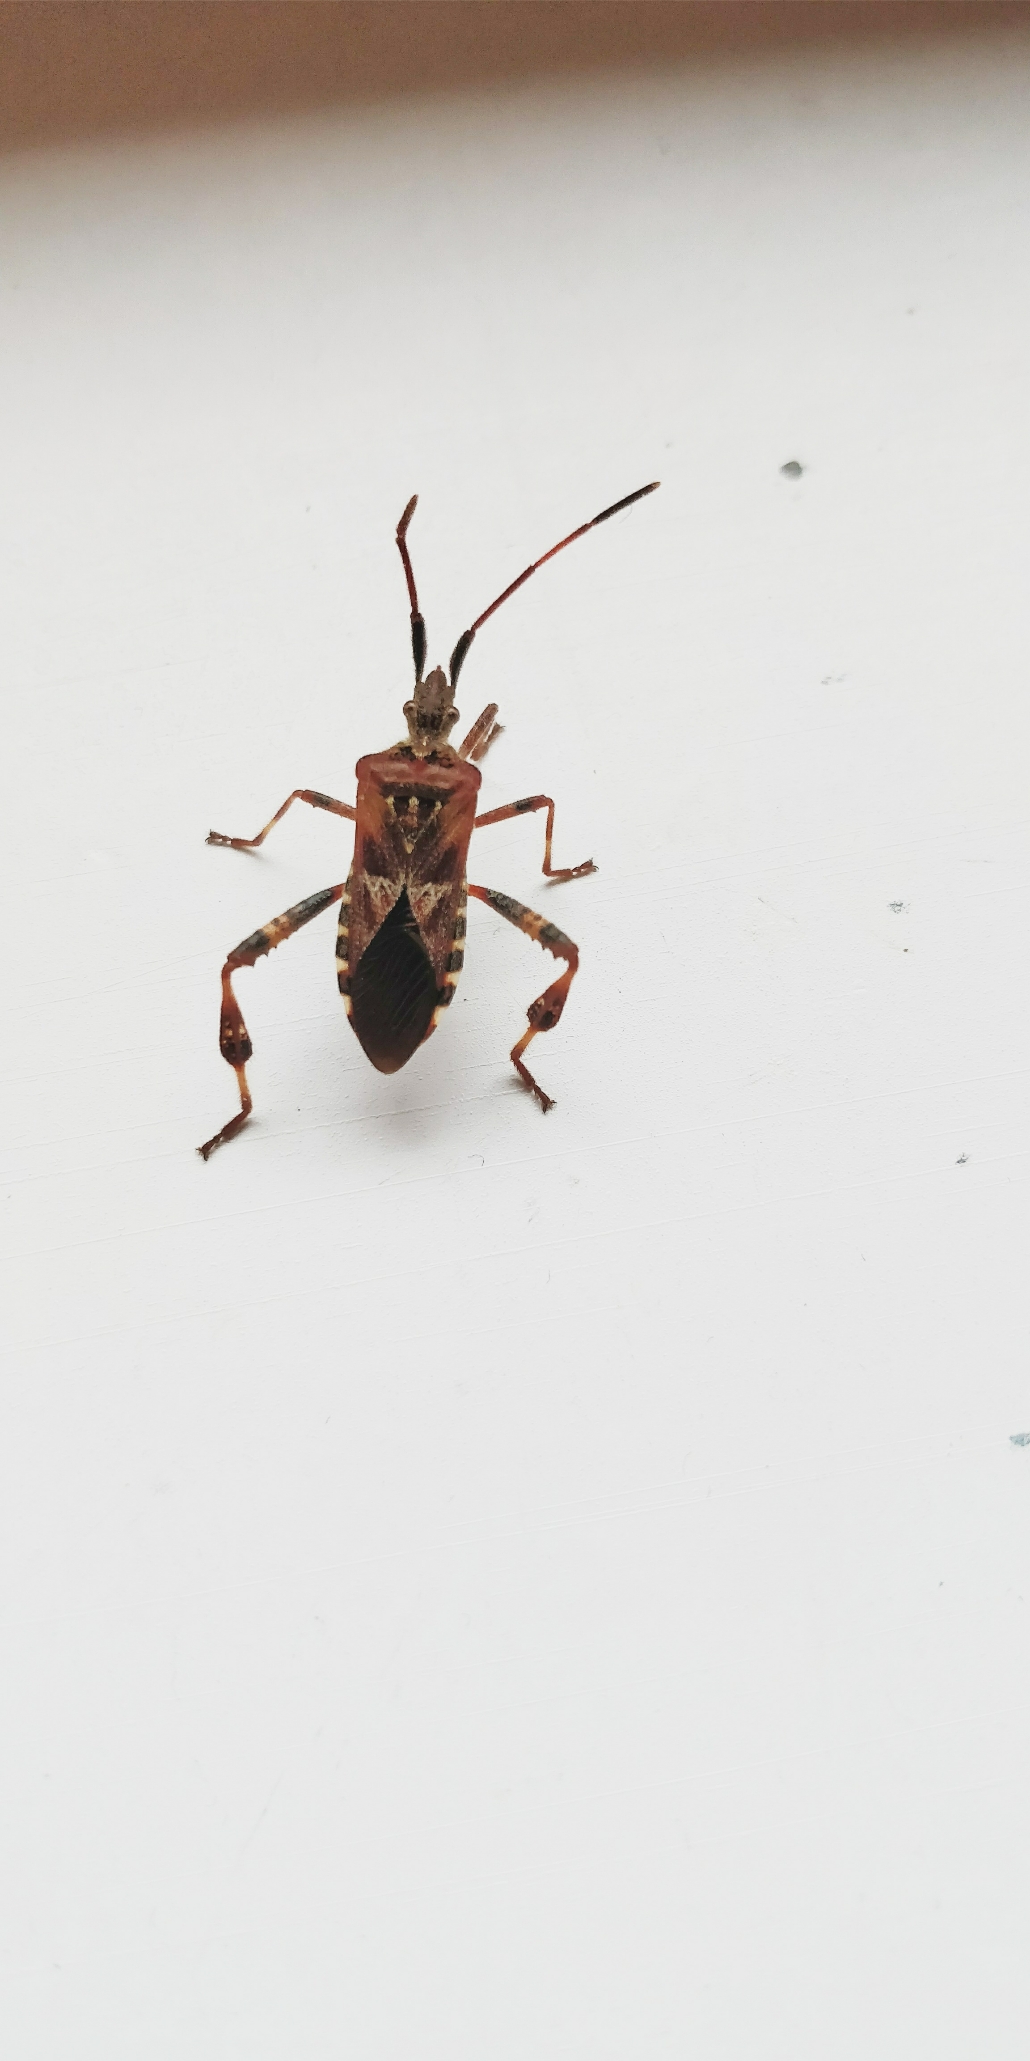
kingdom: Animalia
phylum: Arthropoda
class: Insecta
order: Hemiptera
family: Coreidae
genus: Leptoglossus
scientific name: Leptoglossus occidentalis
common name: Amerikansk fyrretæge
